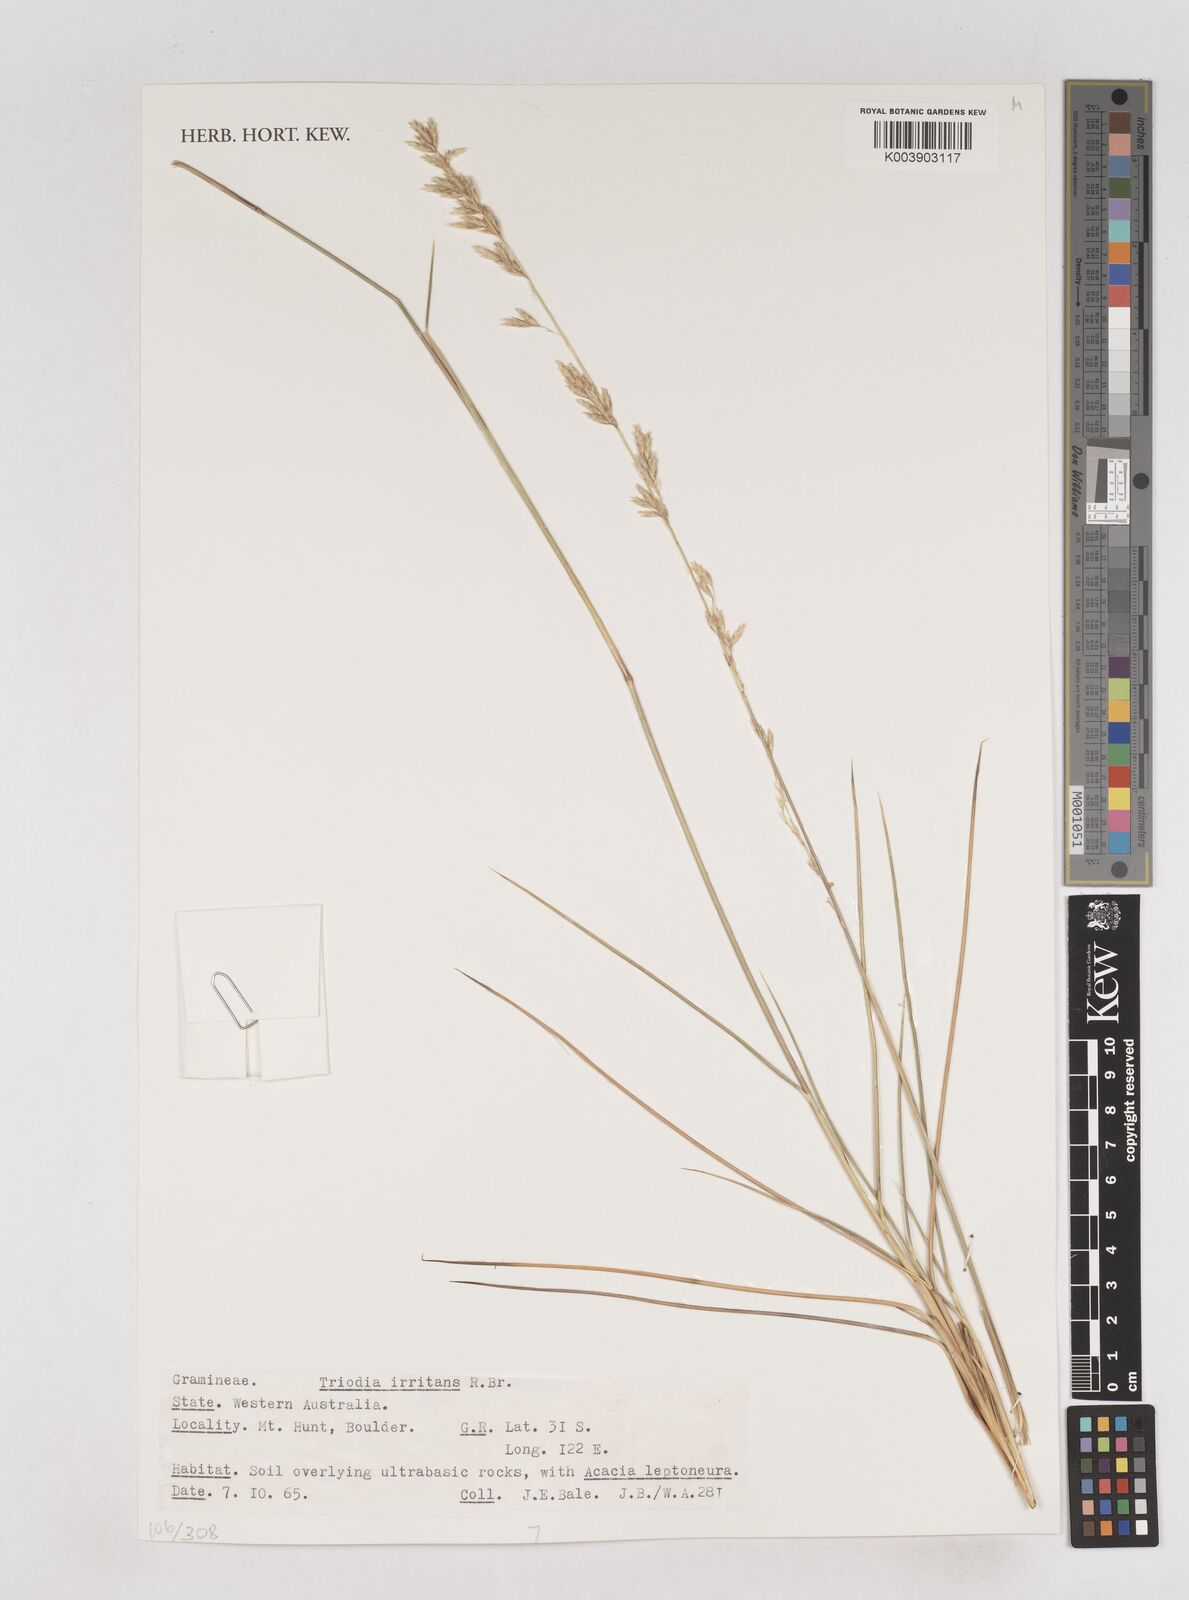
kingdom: Plantae
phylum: Tracheophyta
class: Liliopsida
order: Poales
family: Poaceae
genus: Triodia
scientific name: Triodia irritans
